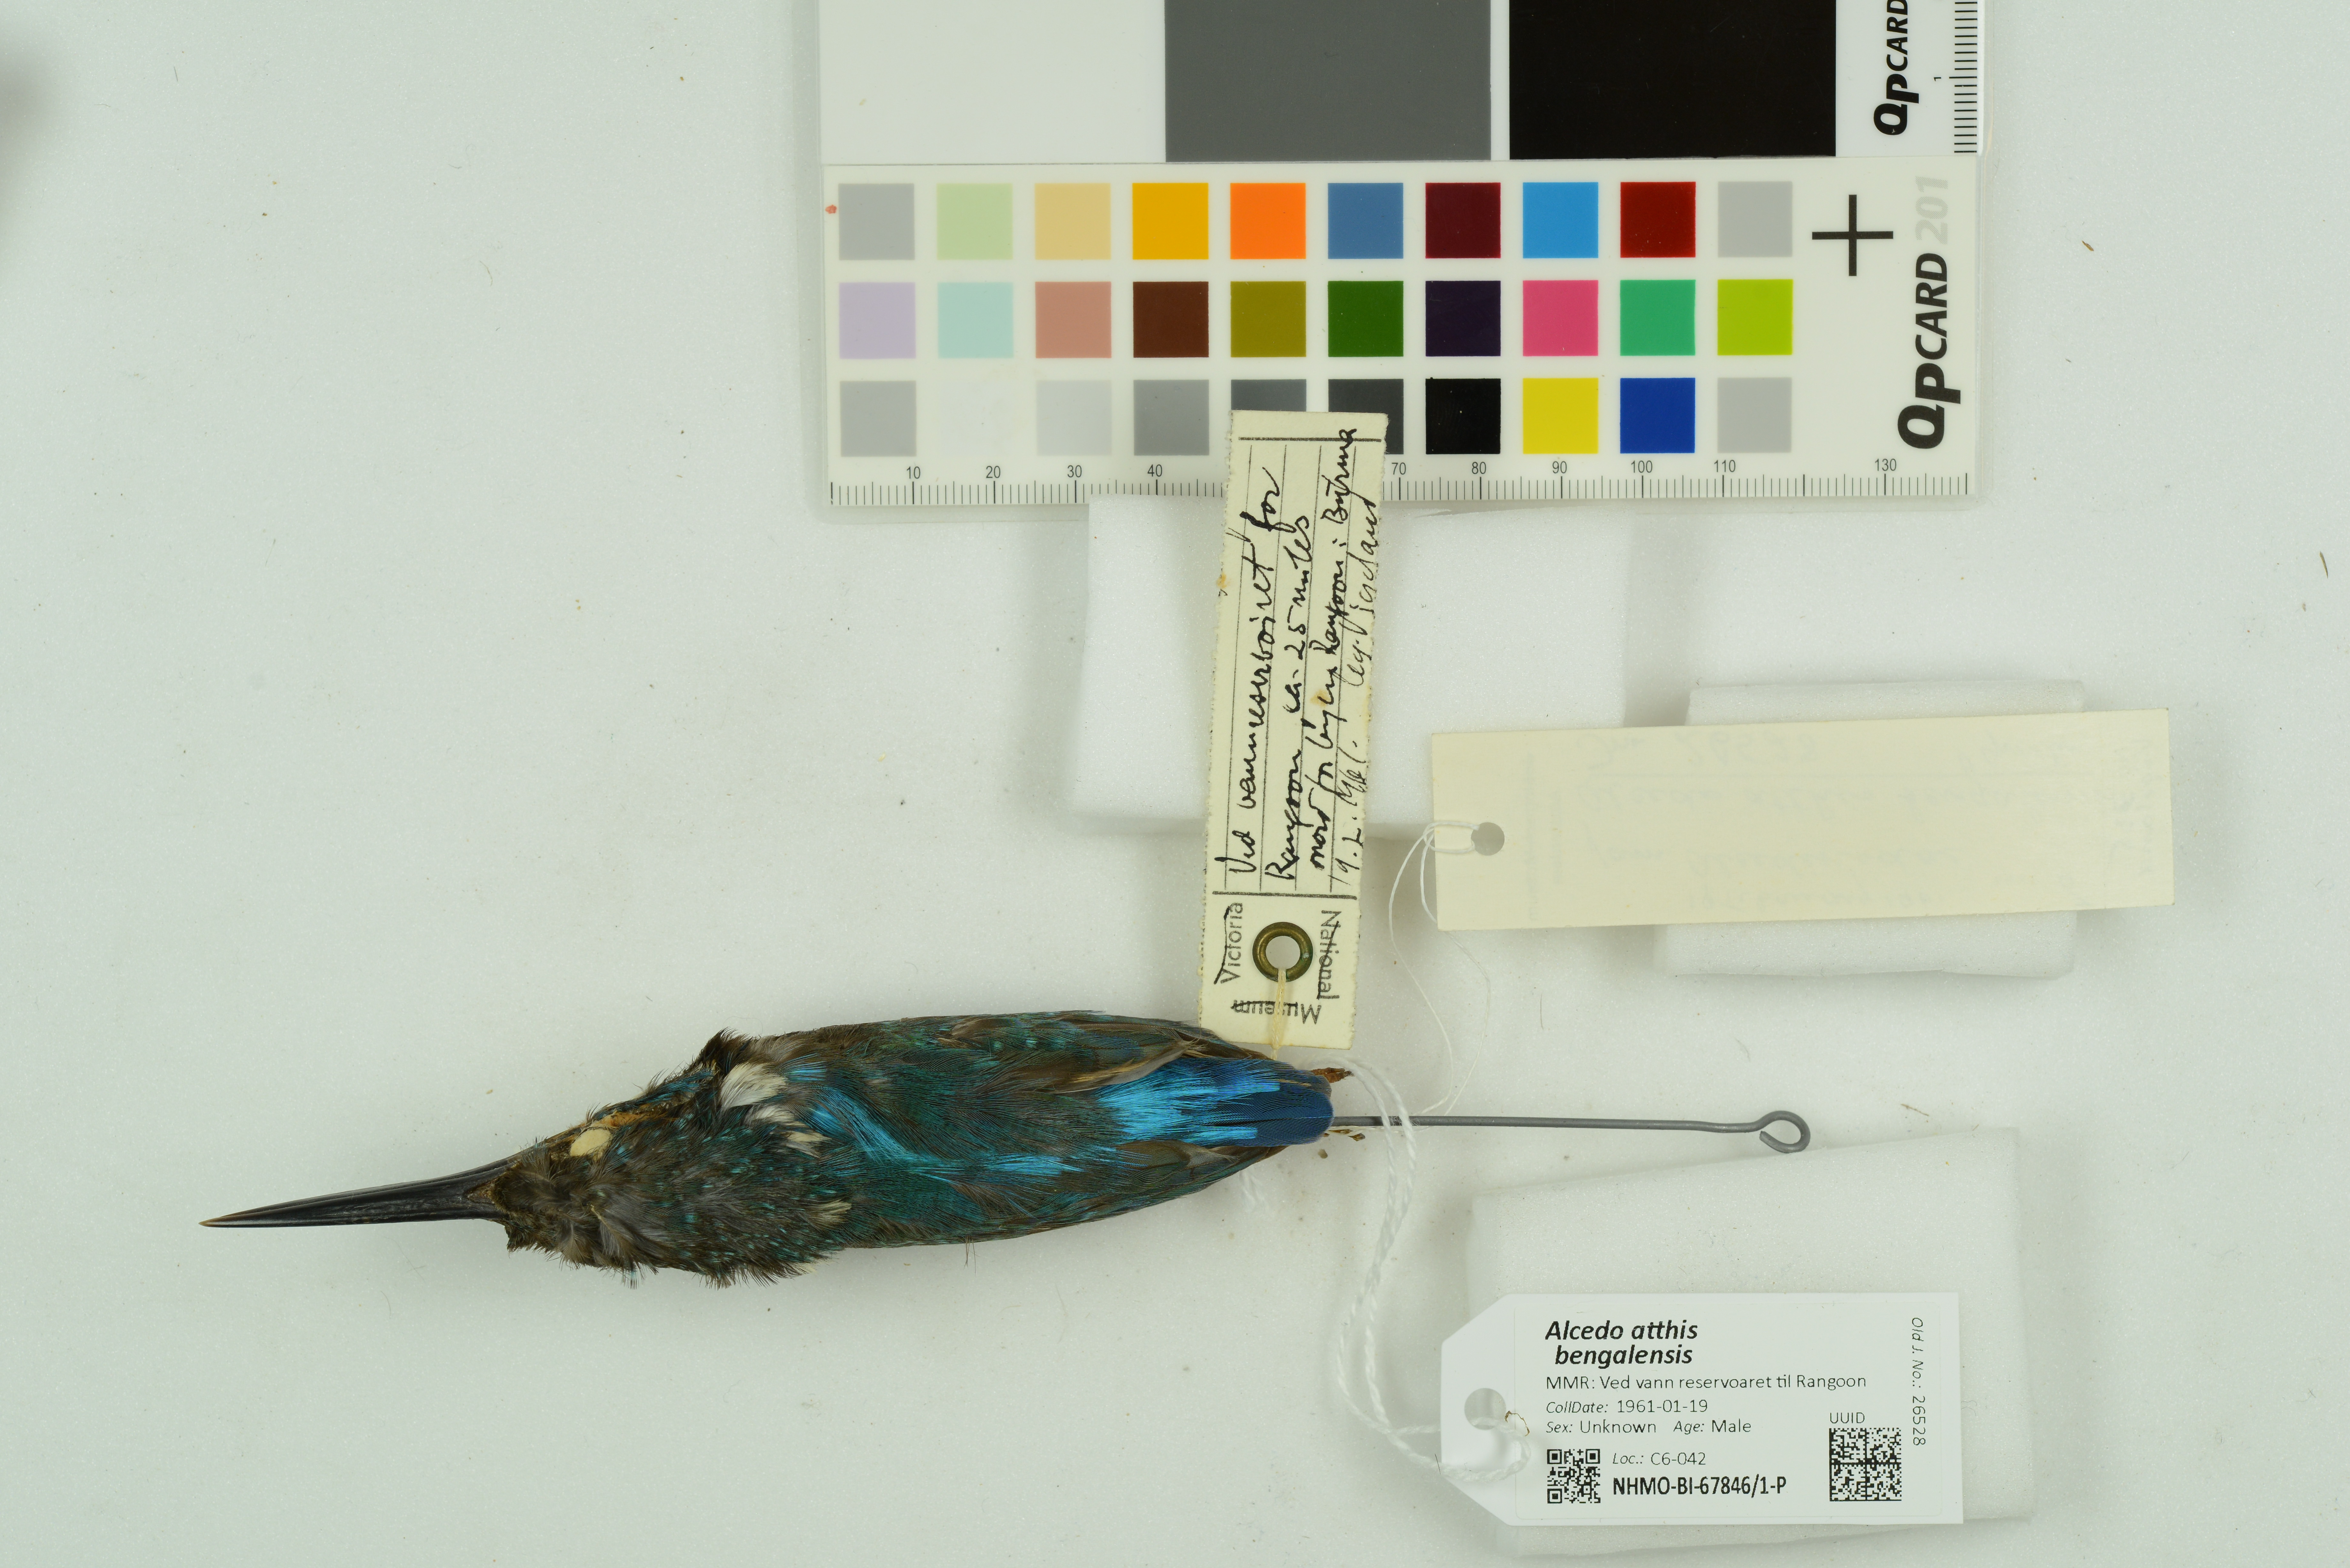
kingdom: Animalia
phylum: Chordata
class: Aves
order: Coraciiformes
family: Alcedinidae
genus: Alcedo
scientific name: Alcedo atthis
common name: Common kingfisher
